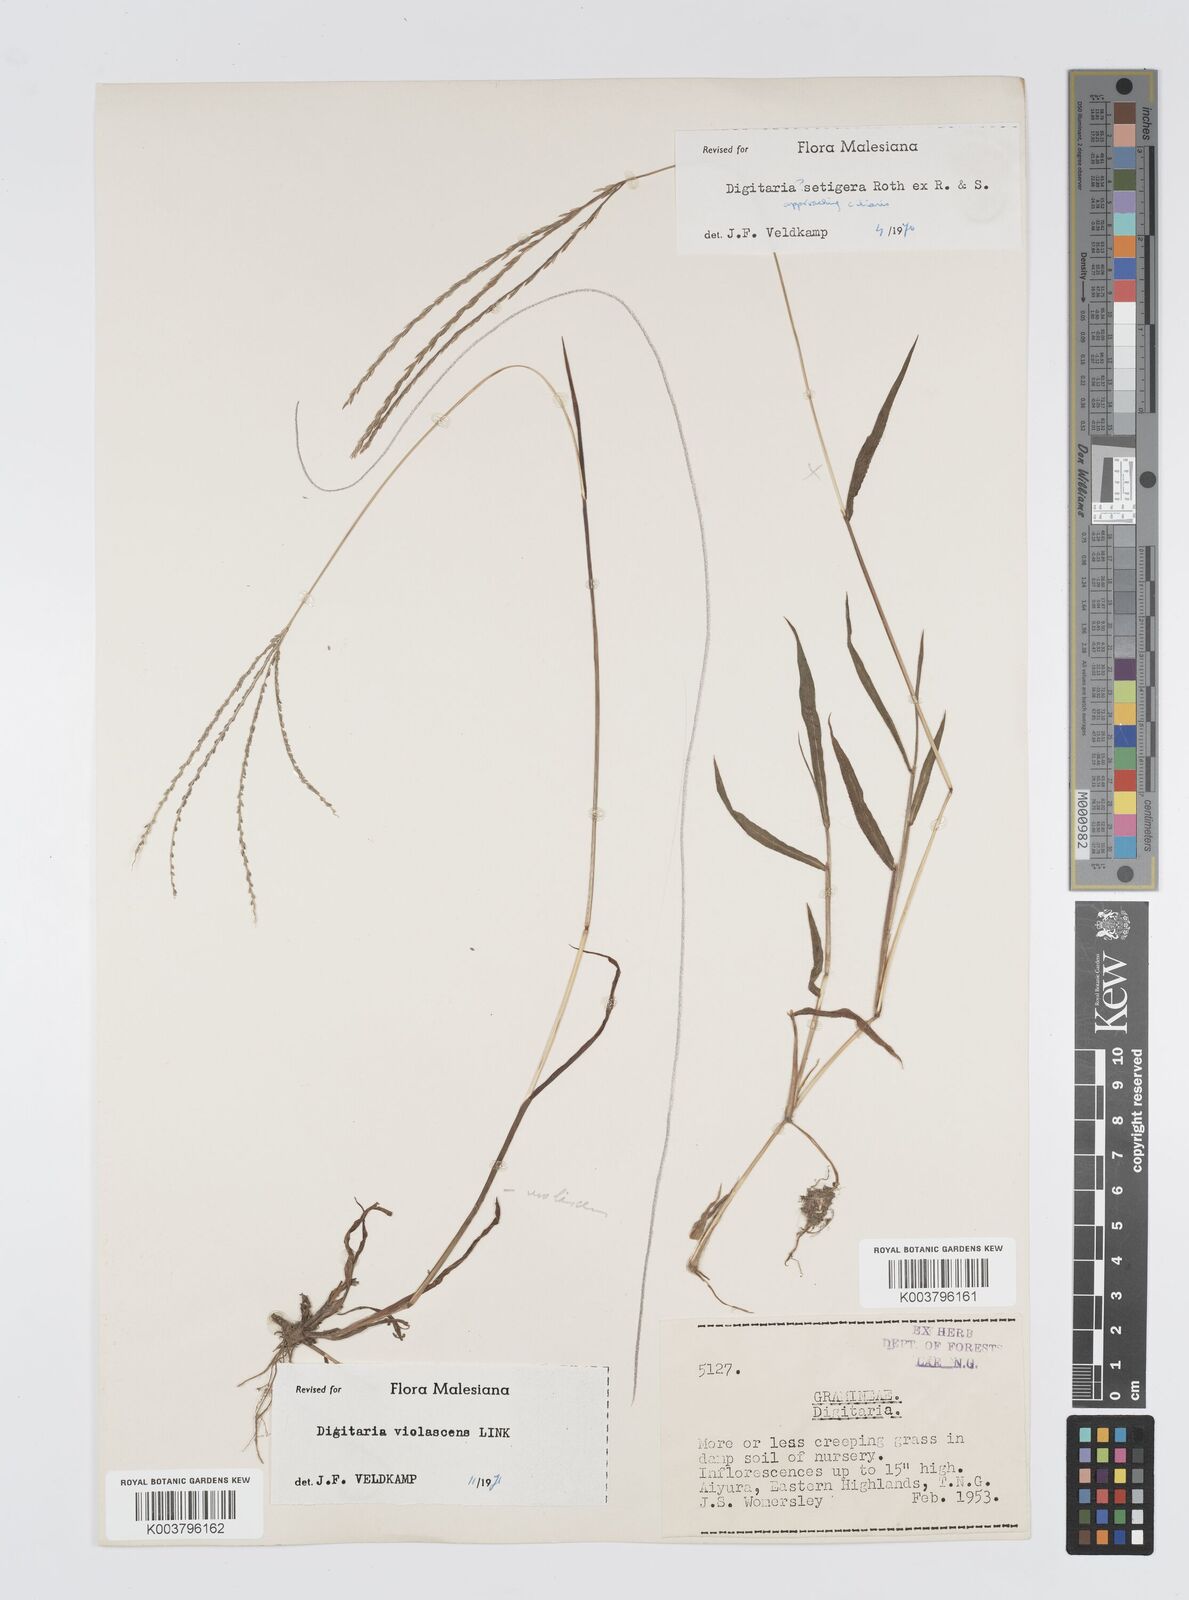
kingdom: Plantae
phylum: Tracheophyta
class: Liliopsida
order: Poales
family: Poaceae
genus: Digitaria
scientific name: Digitaria violascens
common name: Violet crabgrass
